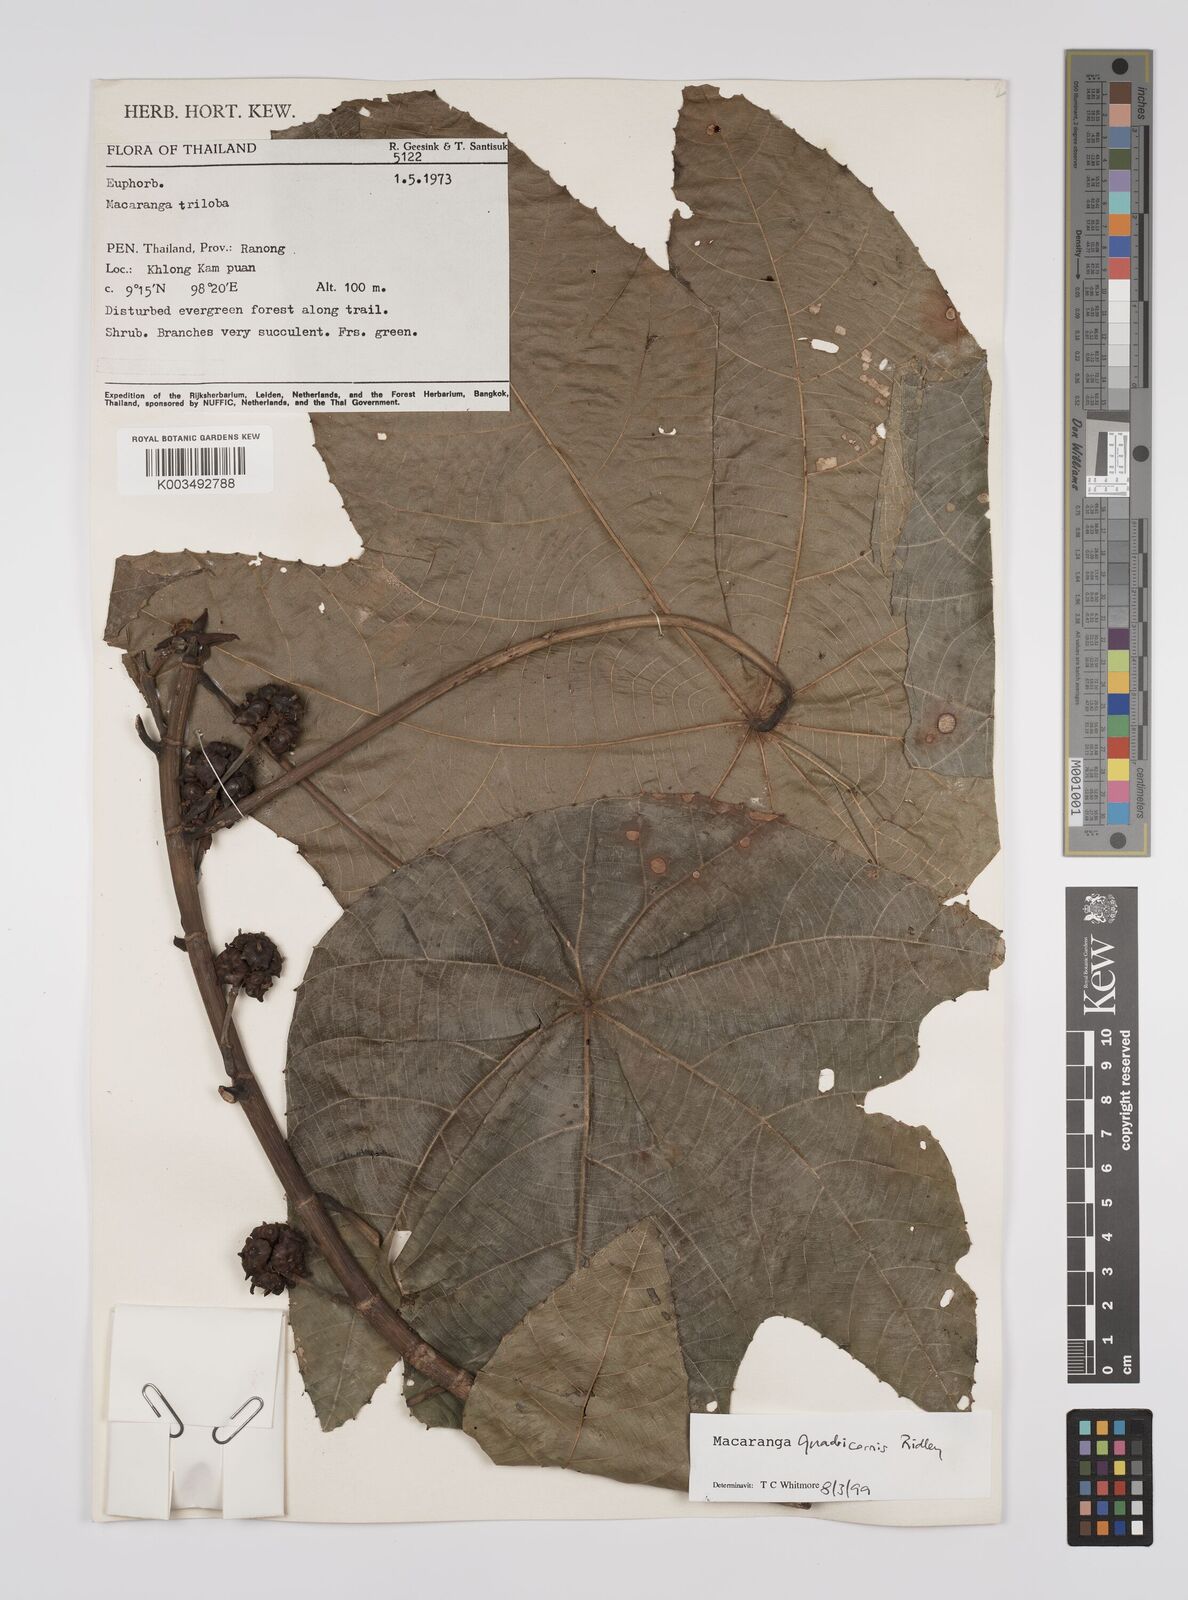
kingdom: Plantae
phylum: Tracheophyta
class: Magnoliopsida
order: Malpighiales
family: Euphorbiaceae
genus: Macaranga
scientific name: Macaranga triloba
